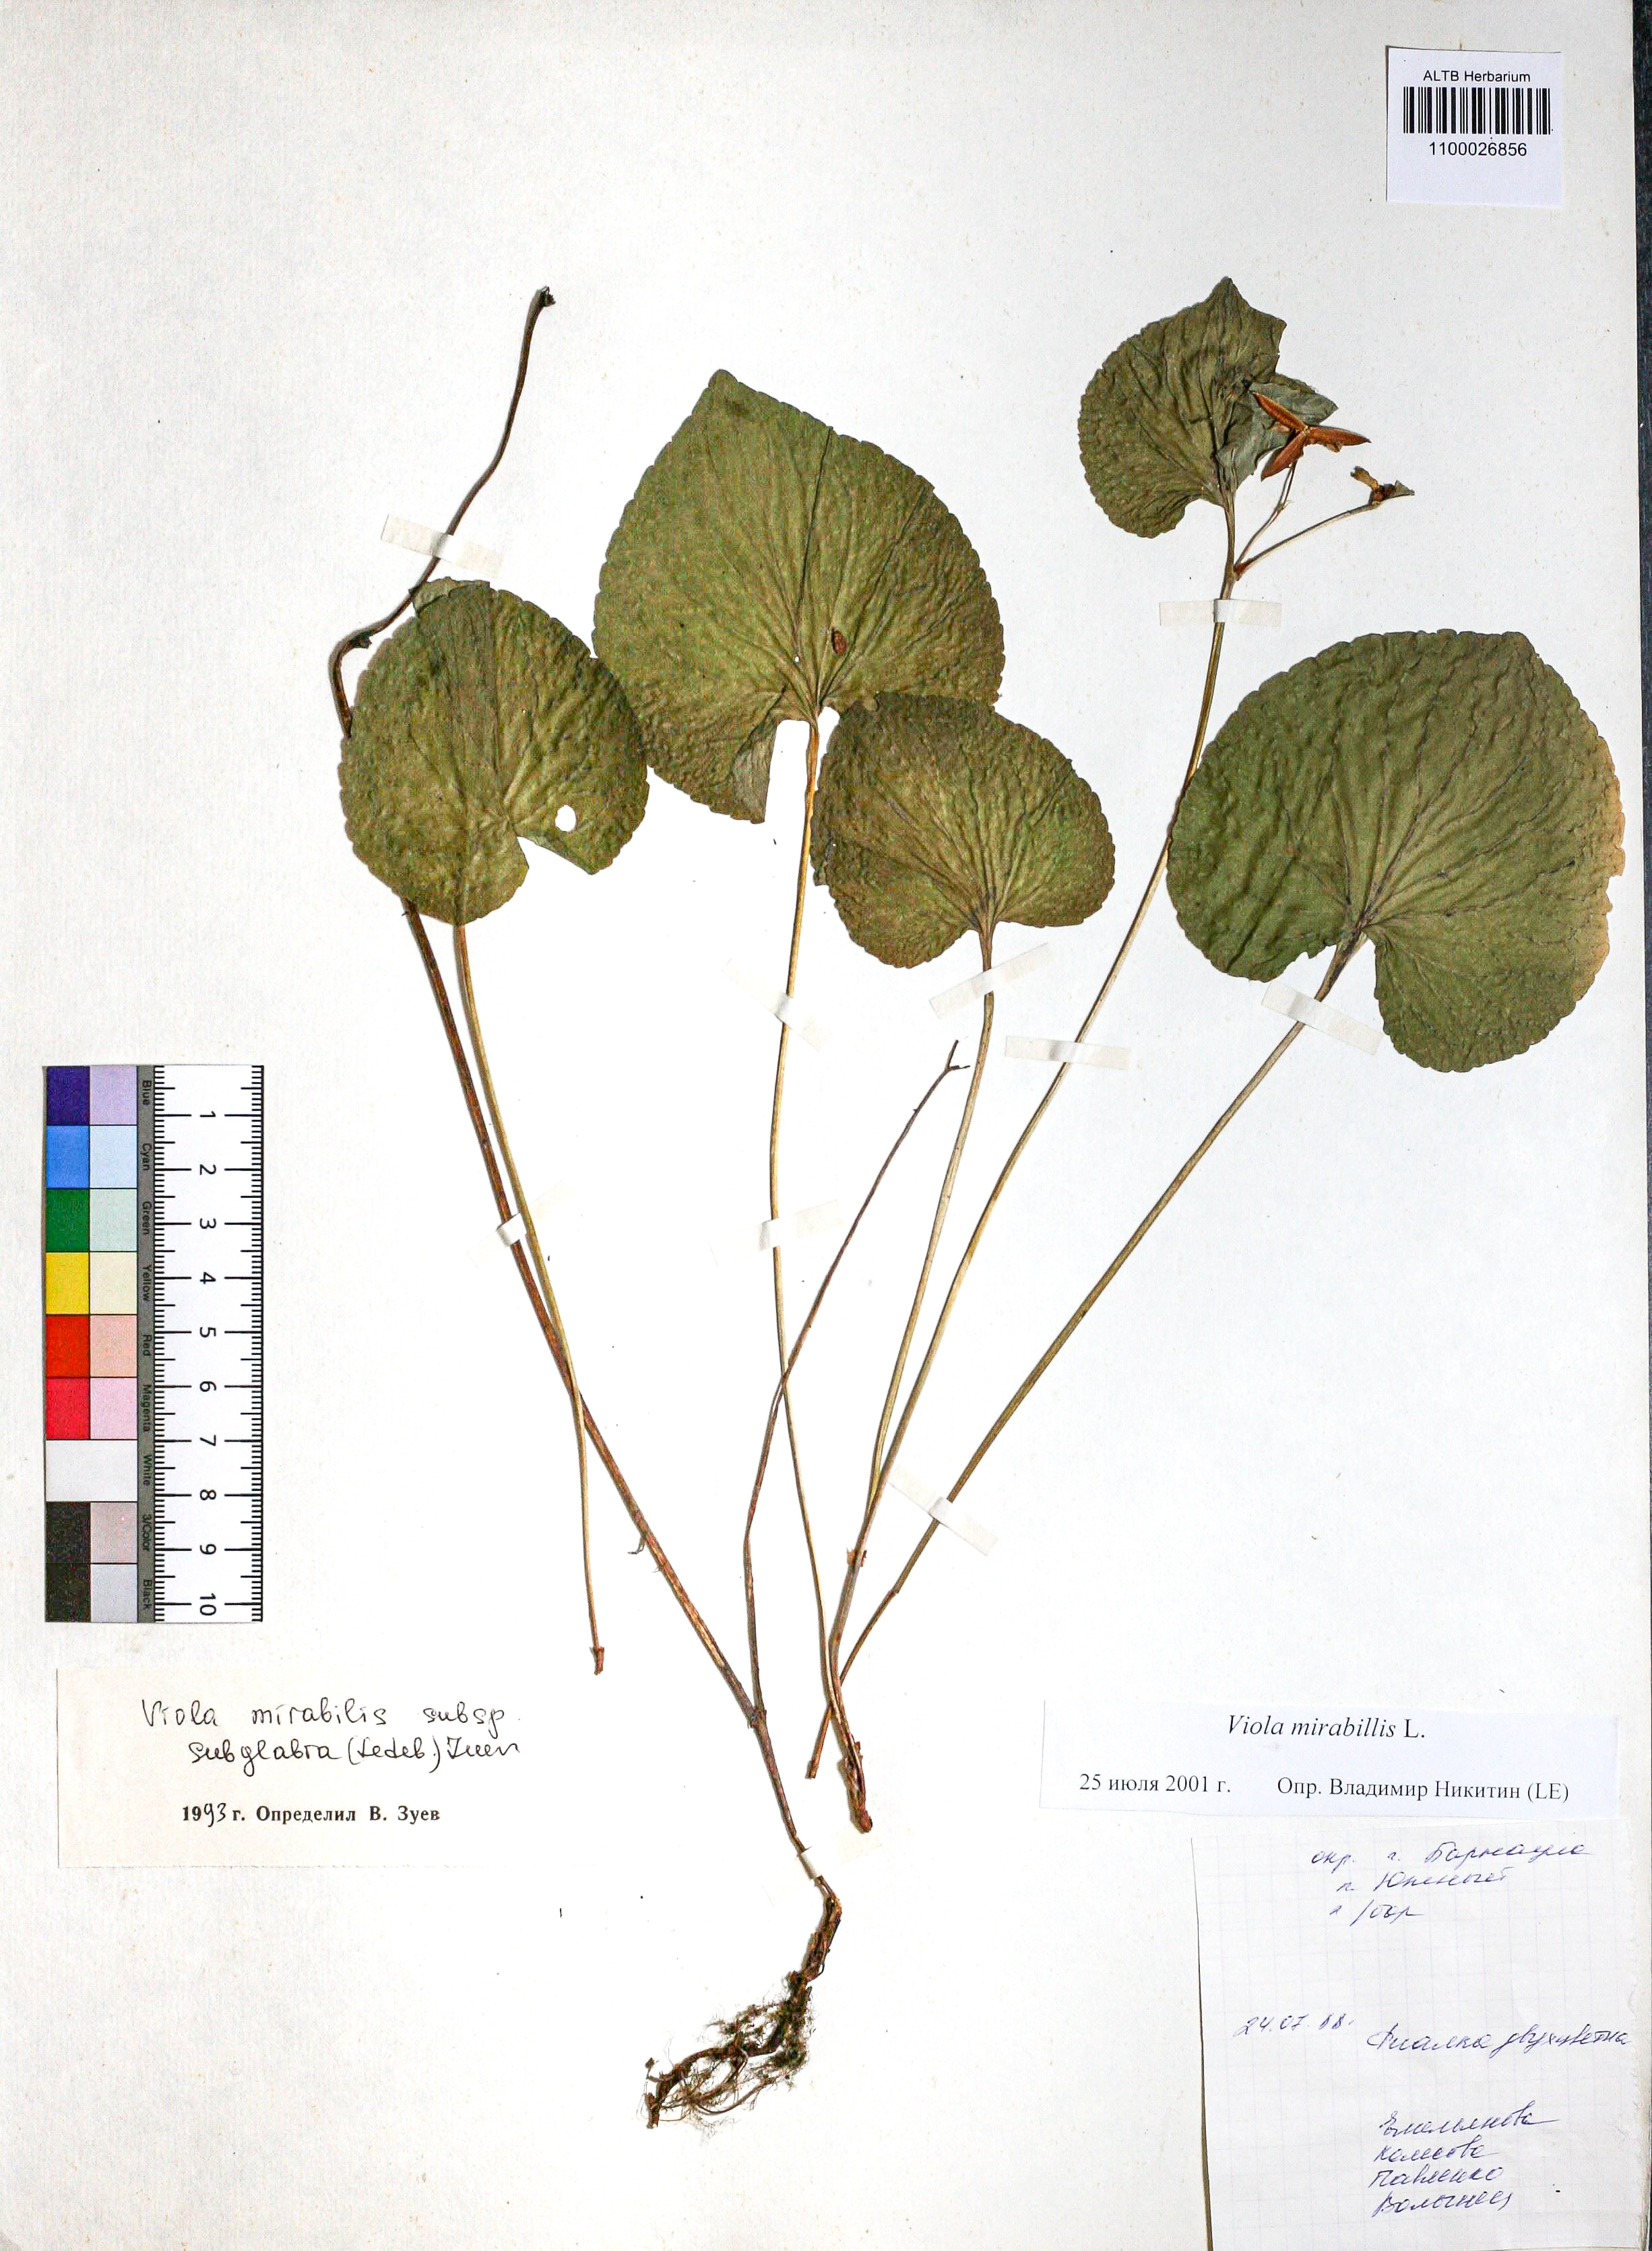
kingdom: Plantae
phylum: Tracheophyta
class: Magnoliopsida
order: Malpighiales
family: Violaceae
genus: Viola
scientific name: Viola mirabilis
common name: Wonder violet
